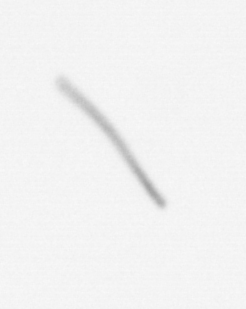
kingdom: Chromista
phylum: Ochrophyta
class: Bacillariophyceae
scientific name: Bacillariophyceae
